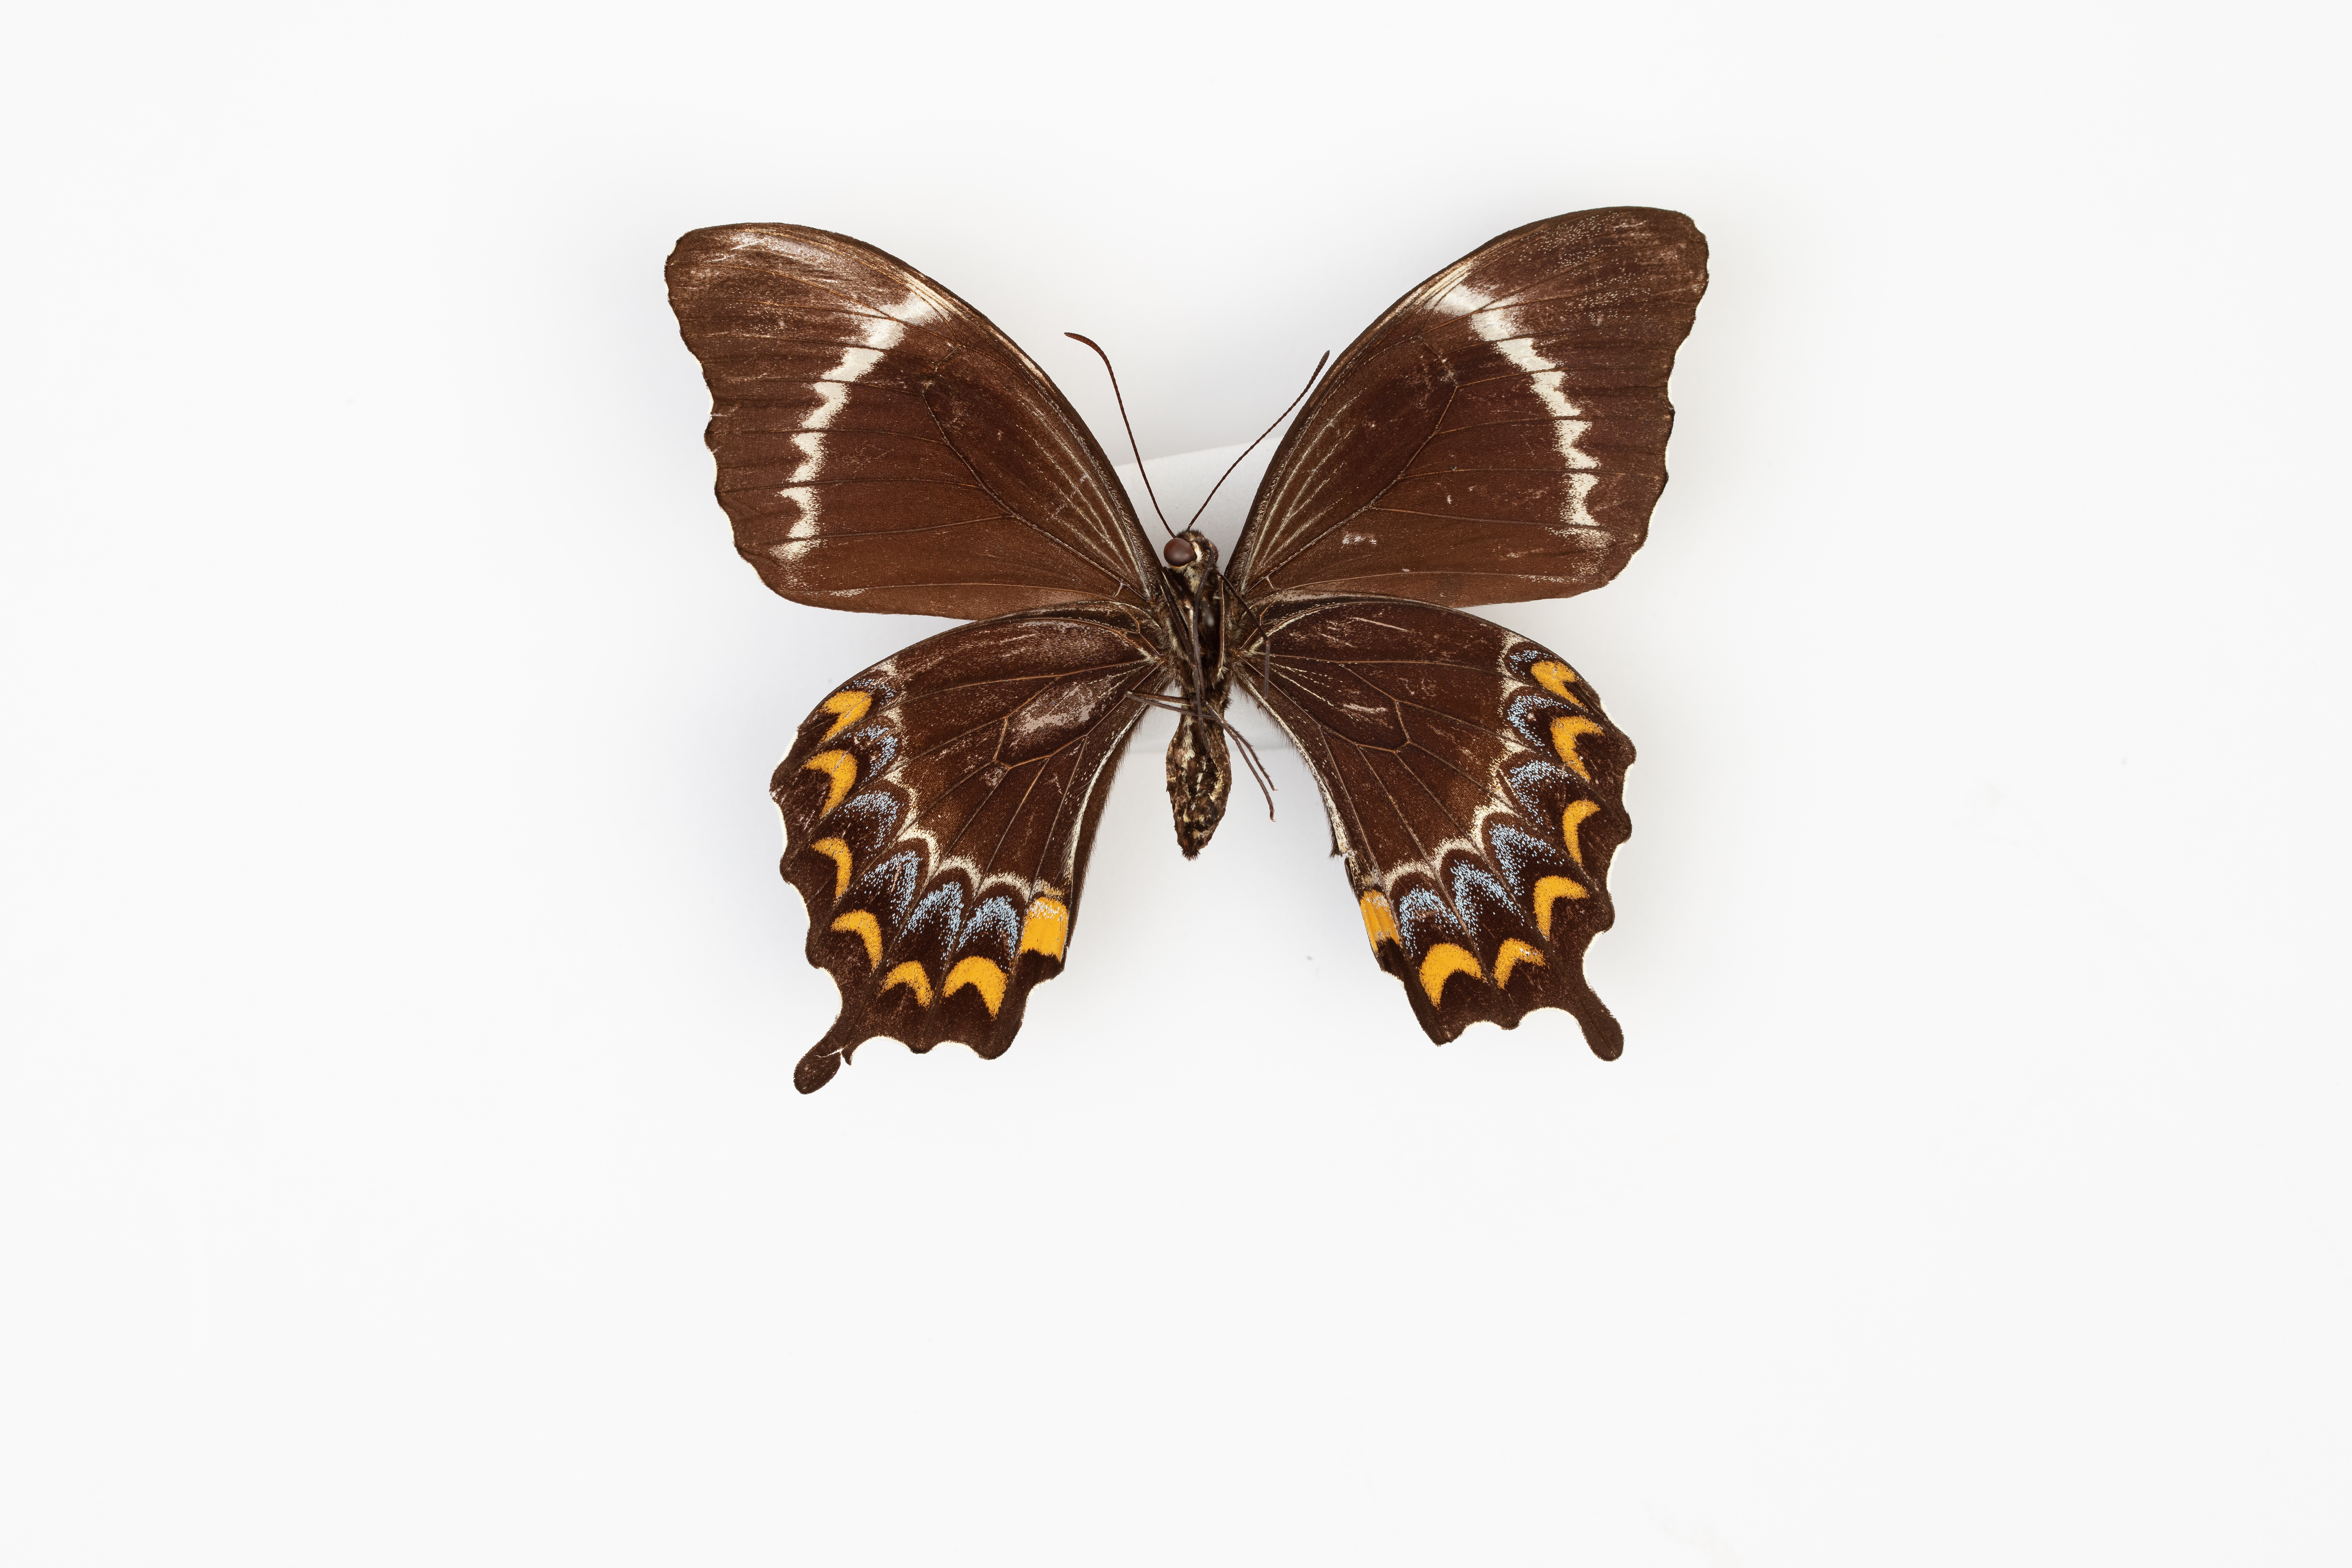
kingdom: Animalia
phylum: Arthropoda
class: Insecta
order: Lepidoptera
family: Papilionidae
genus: Papilio
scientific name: Papilio schmeltzi
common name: Fijian swallowtail
